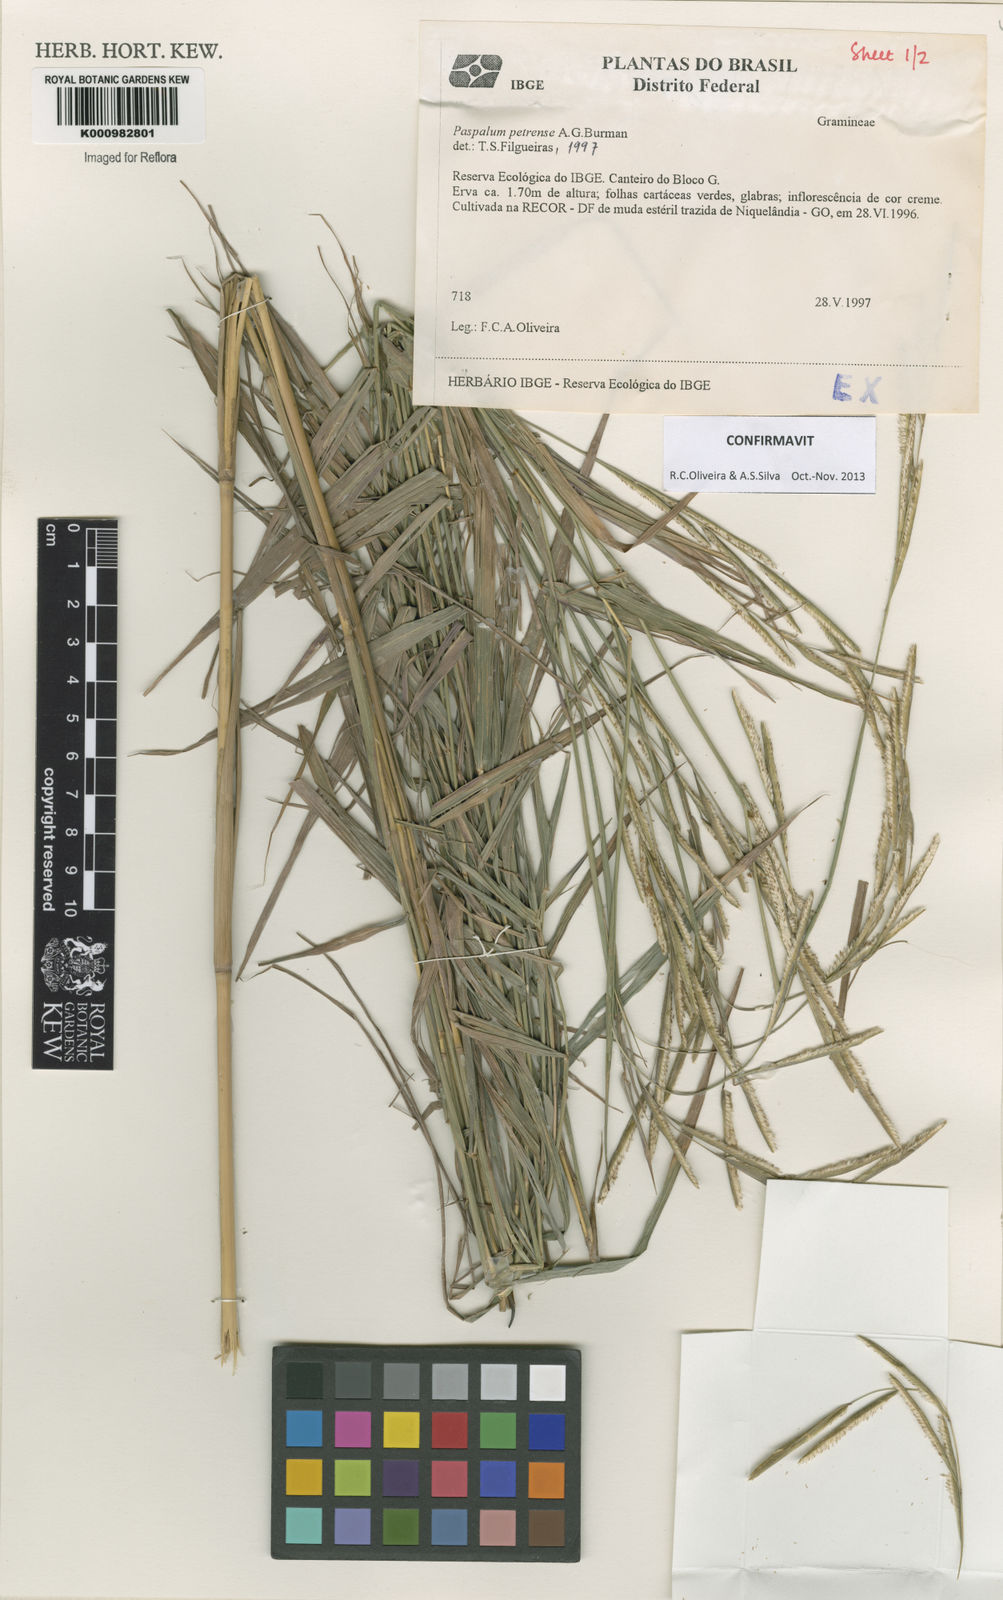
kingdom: Plantae
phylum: Tracheophyta
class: Liliopsida
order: Poales
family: Poaceae
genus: Paspalum
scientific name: Paspalum petrense
